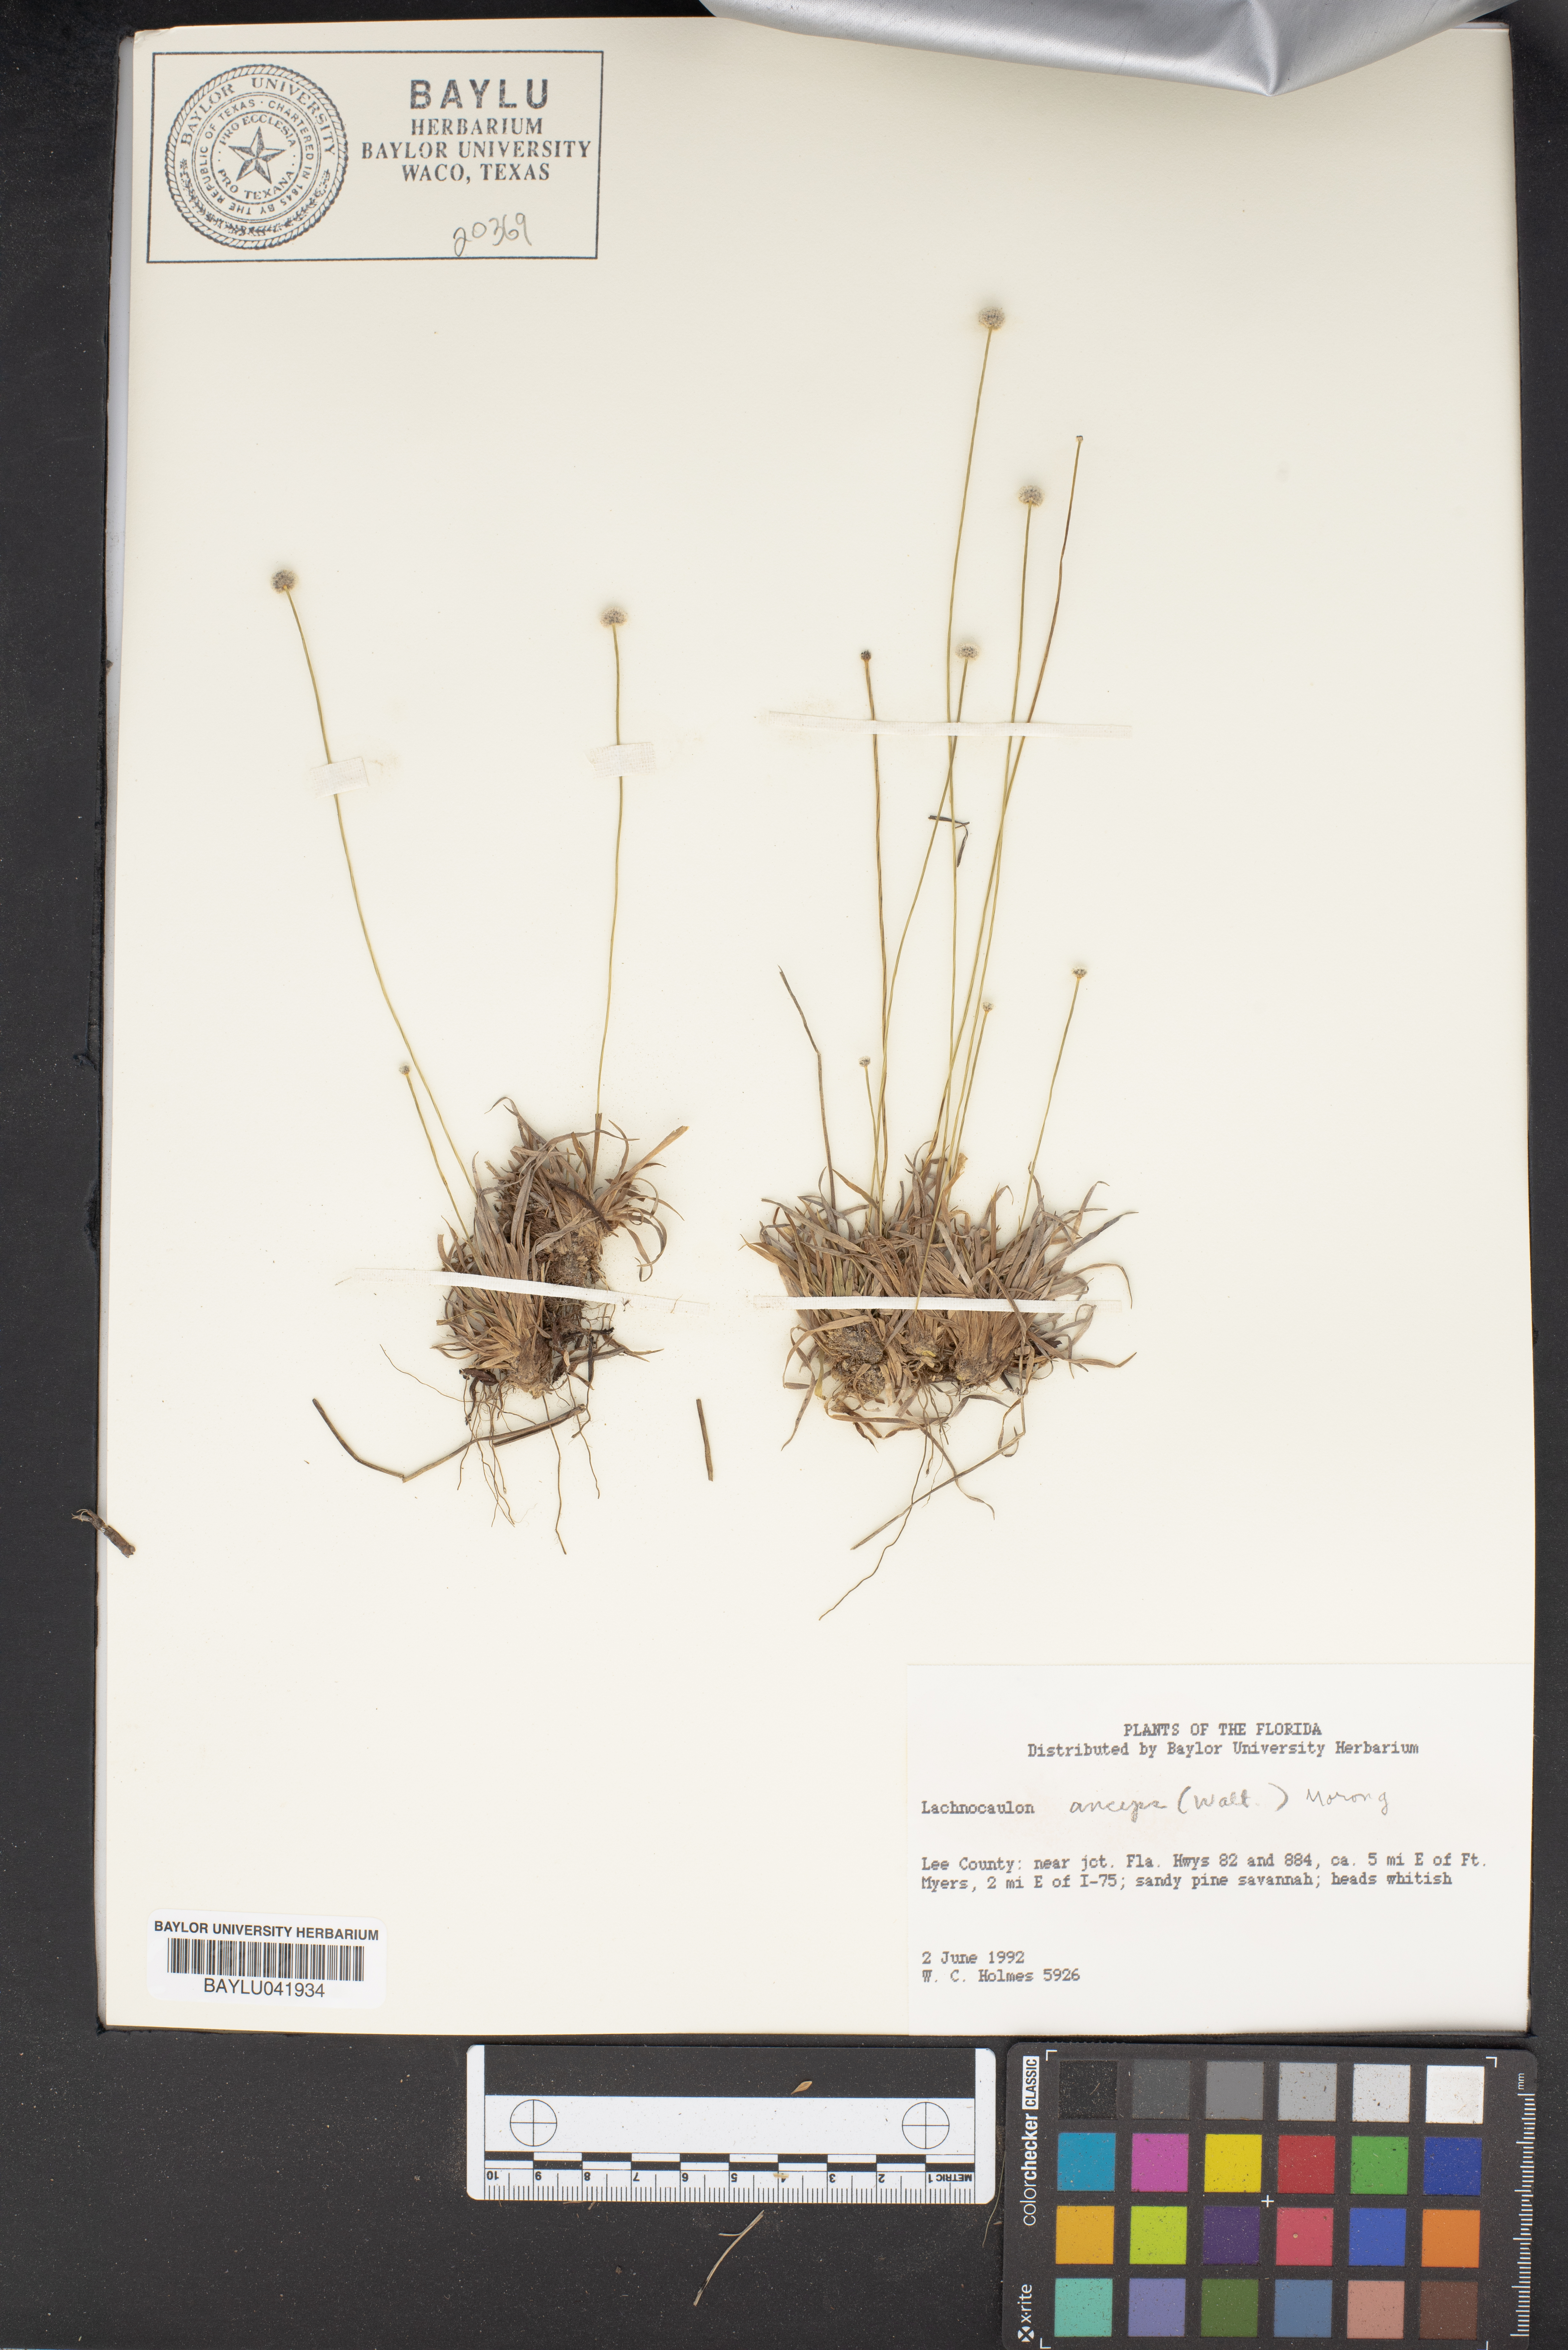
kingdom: Plantae
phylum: Tracheophyta
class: Liliopsida
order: Poales
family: Eriocaulaceae
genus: Paepalanthus
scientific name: Paepalanthus anceps
